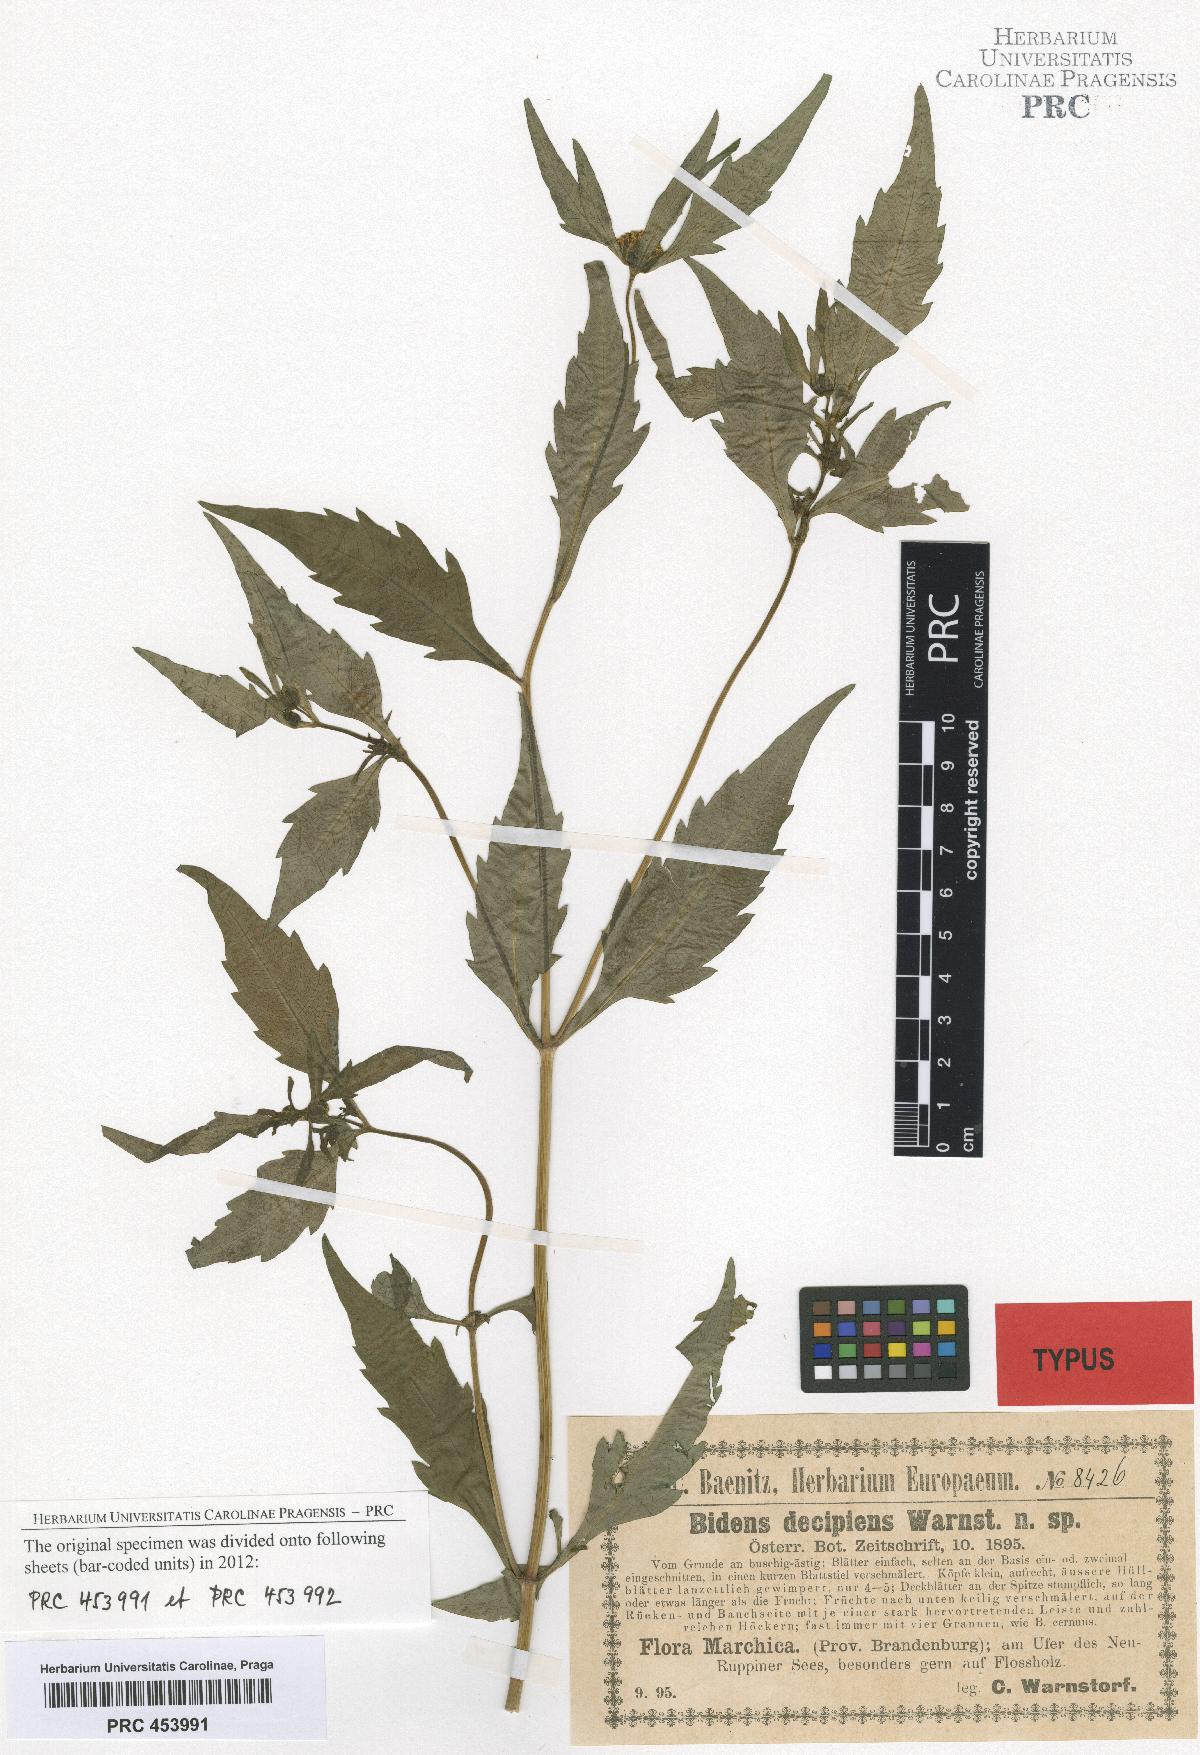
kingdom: Plantae
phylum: Tracheophyta
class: Magnoliopsida
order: Asterales
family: Asteraceae
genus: Bidens
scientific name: Bidens connata
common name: London bur-marigold
